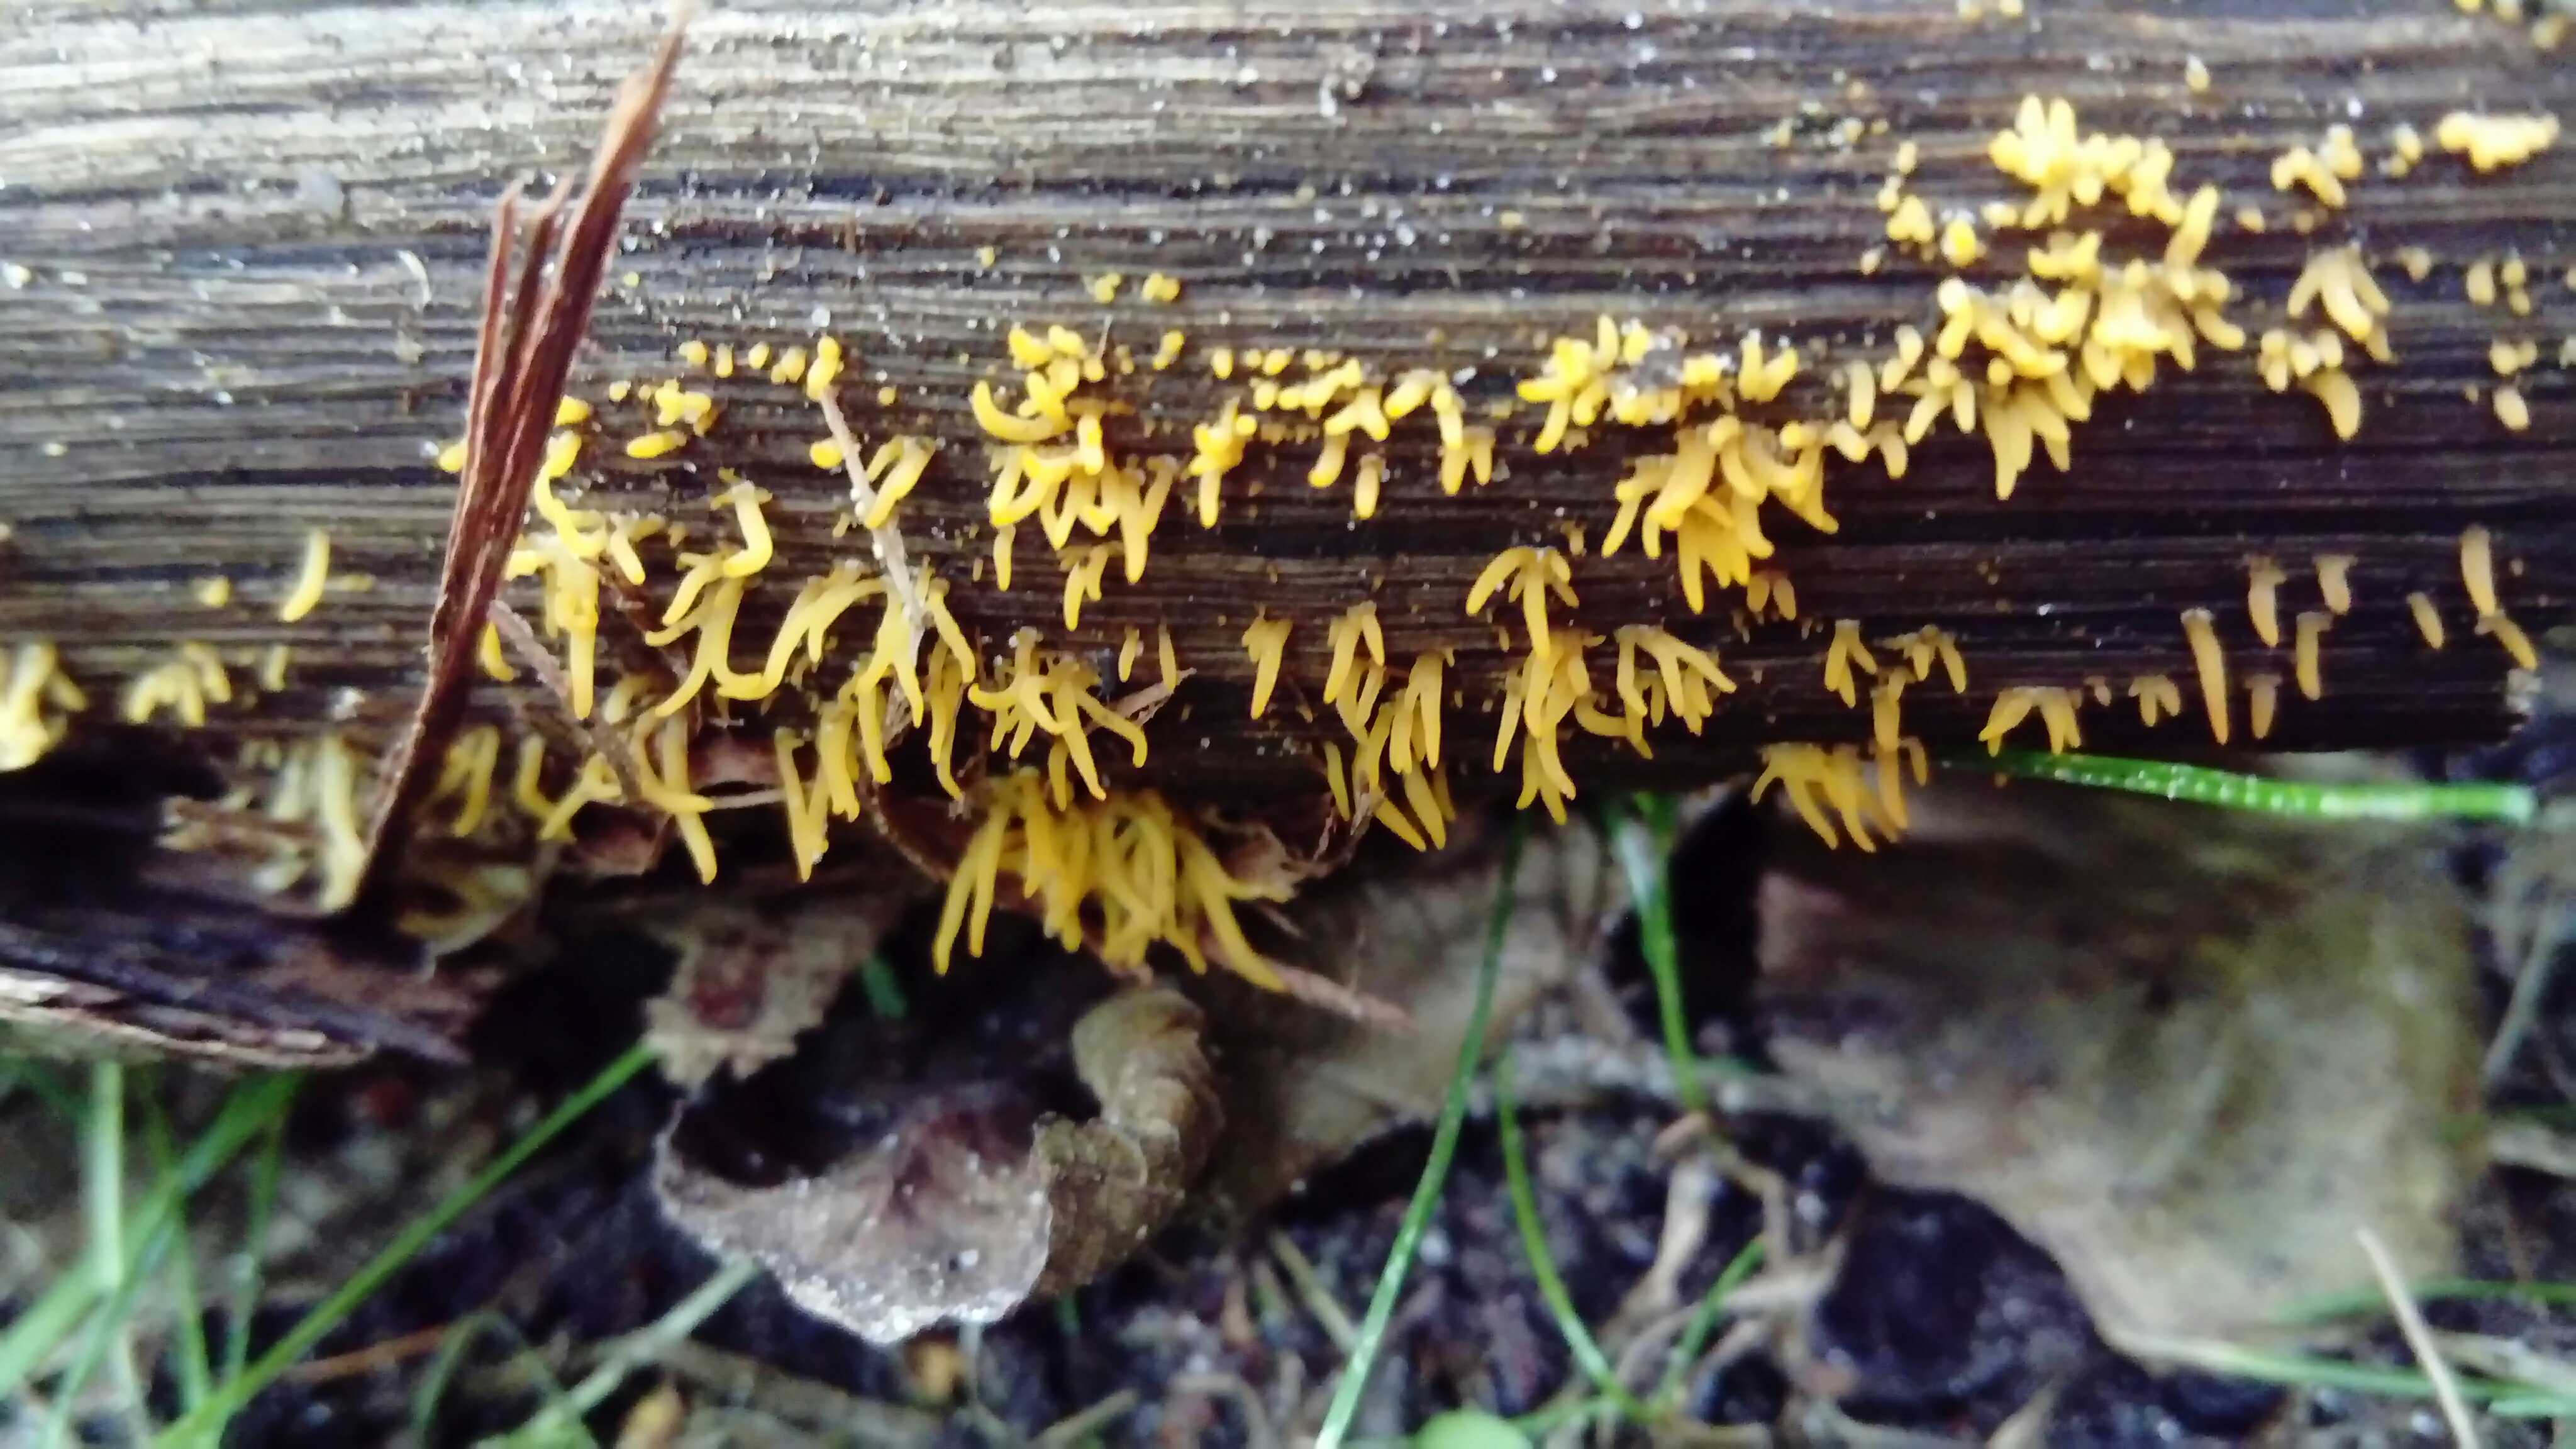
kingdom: Fungi
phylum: Basidiomycota
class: Dacrymycetes
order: Dacrymycetales
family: Dacrymycetaceae
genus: Calocera
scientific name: Calocera cornea
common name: liden guldgaffel
